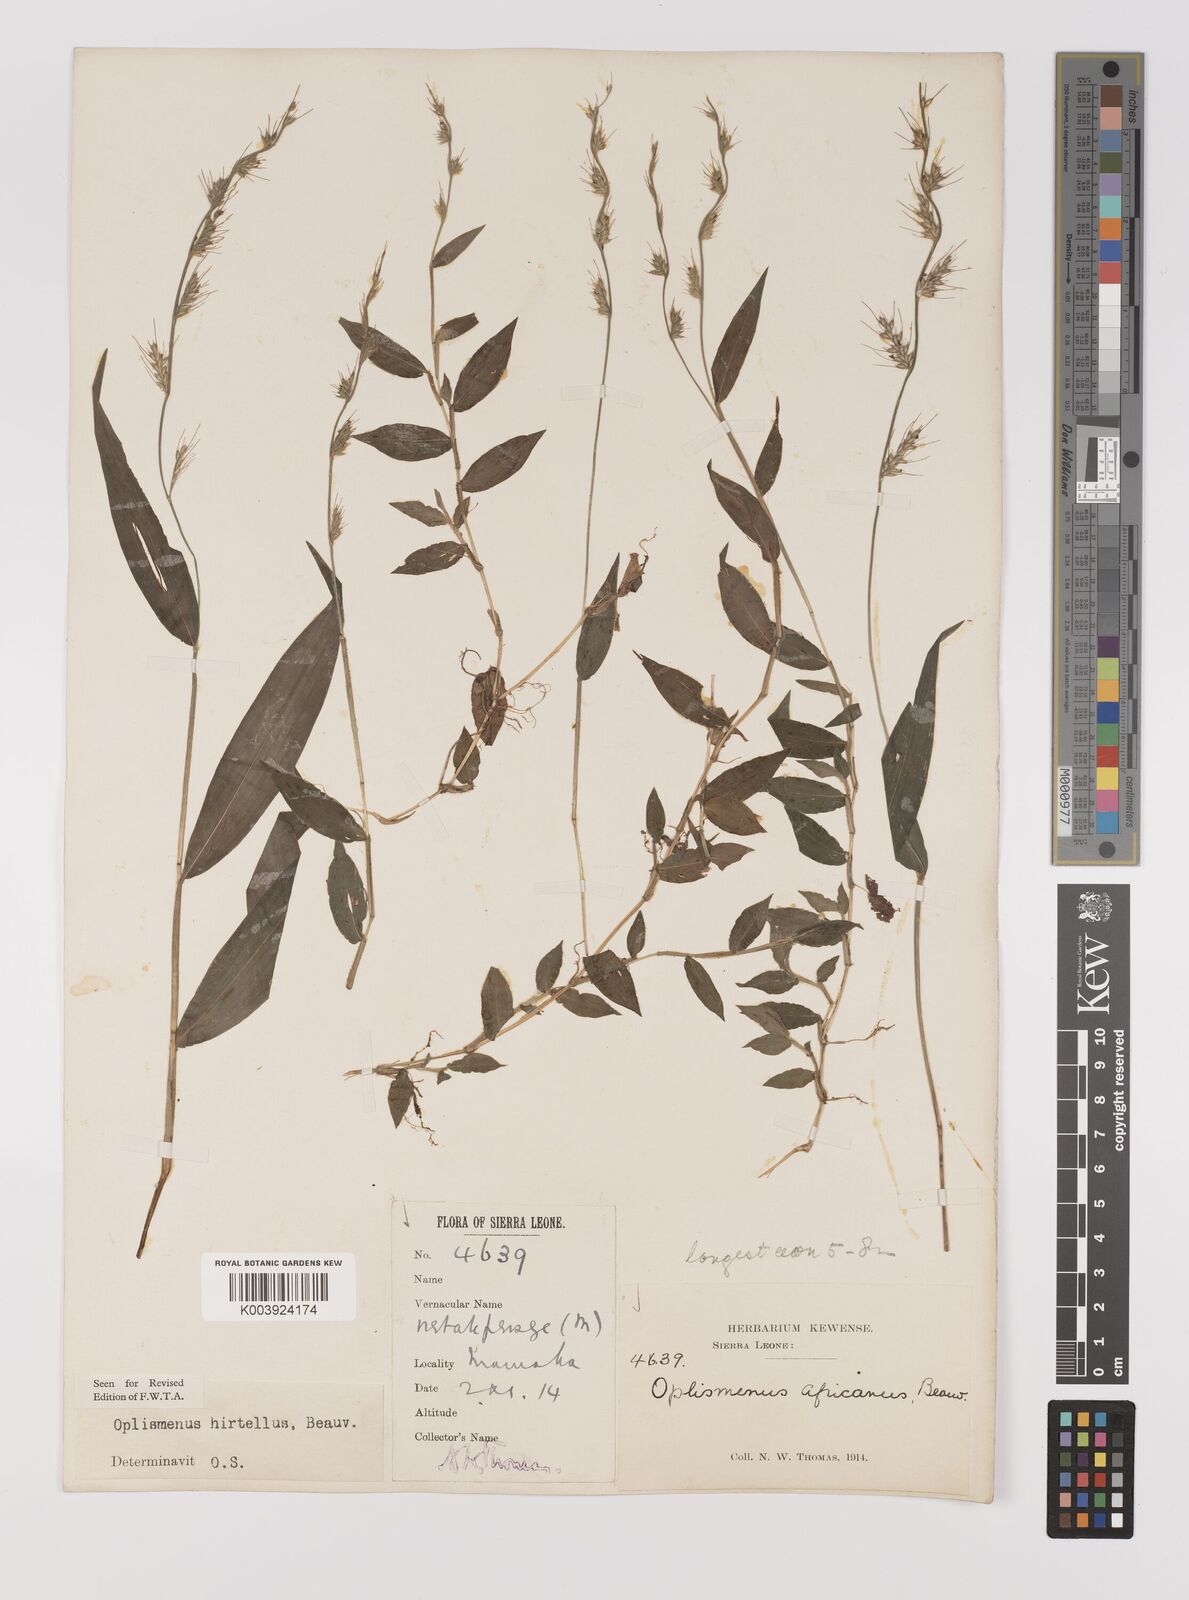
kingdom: Plantae
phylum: Tracheophyta
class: Liliopsida
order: Poales
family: Poaceae
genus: Oplismenus
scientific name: Oplismenus hirtellus
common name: Basketgrass
